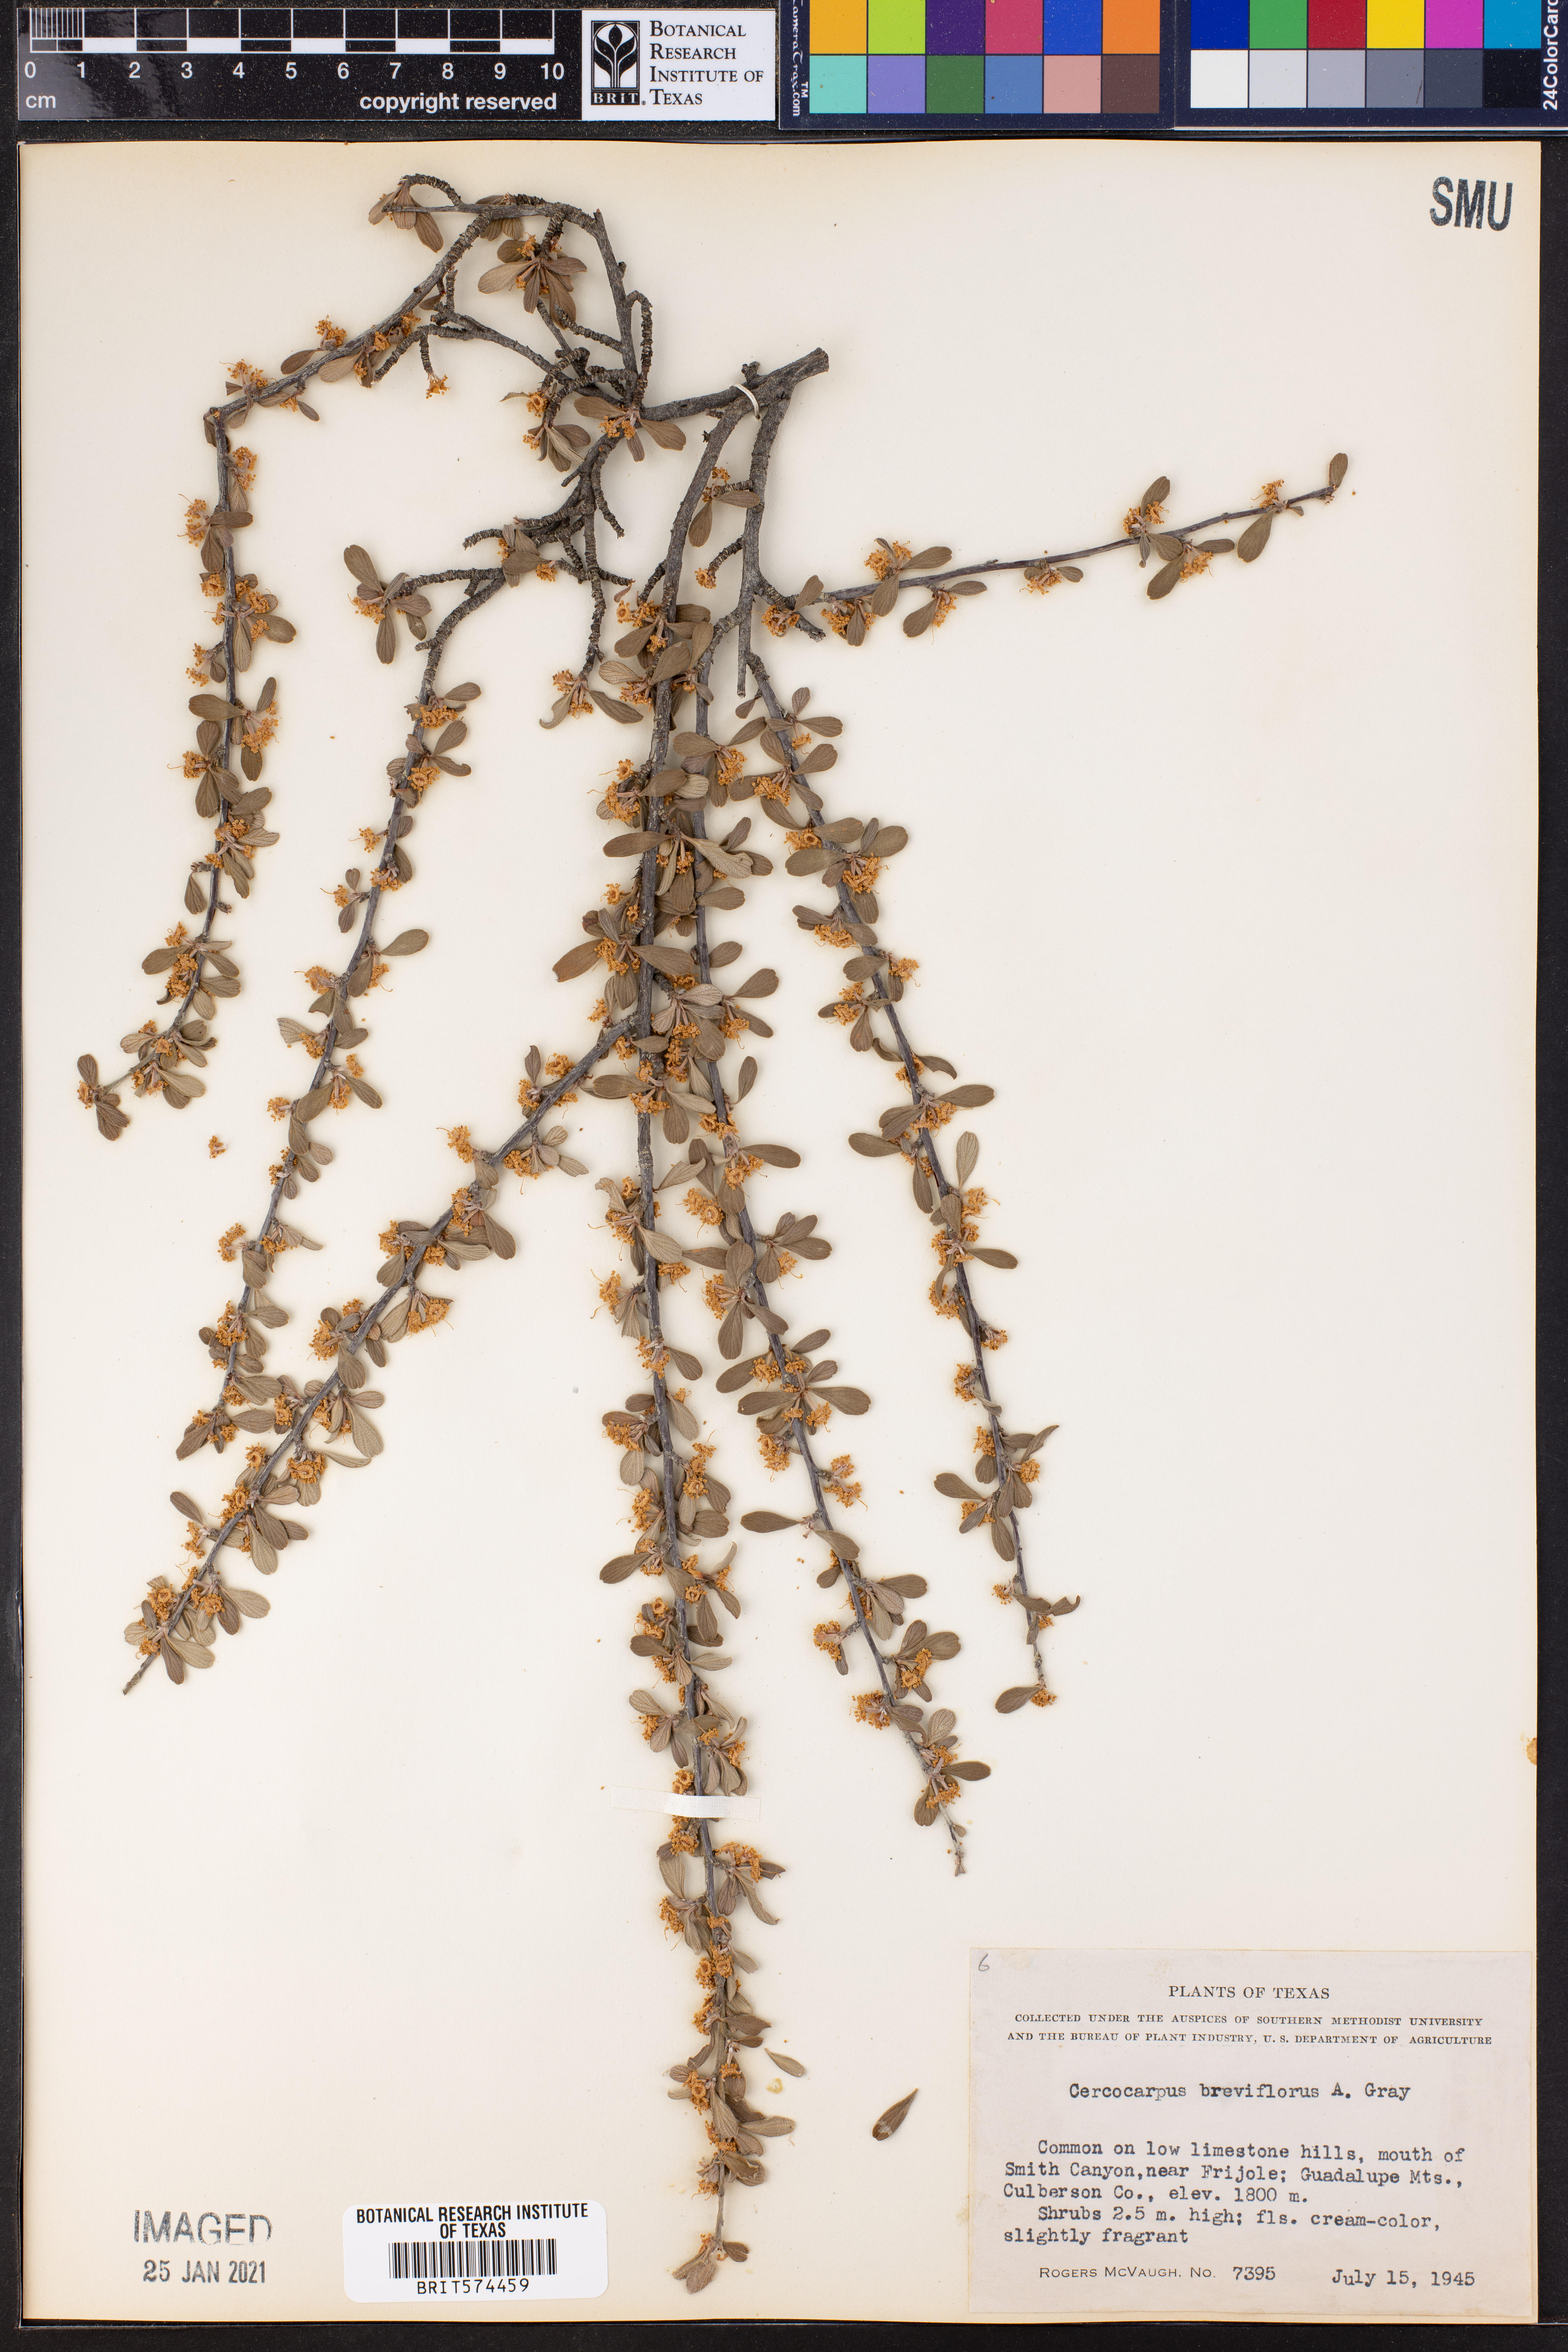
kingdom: Plantae
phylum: Tracheophyta
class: Magnoliopsida
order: Rosales
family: Rosaceae
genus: Cercocarpus
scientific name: Cercocarpus breviflorus
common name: Wright's mountain-mahogany
